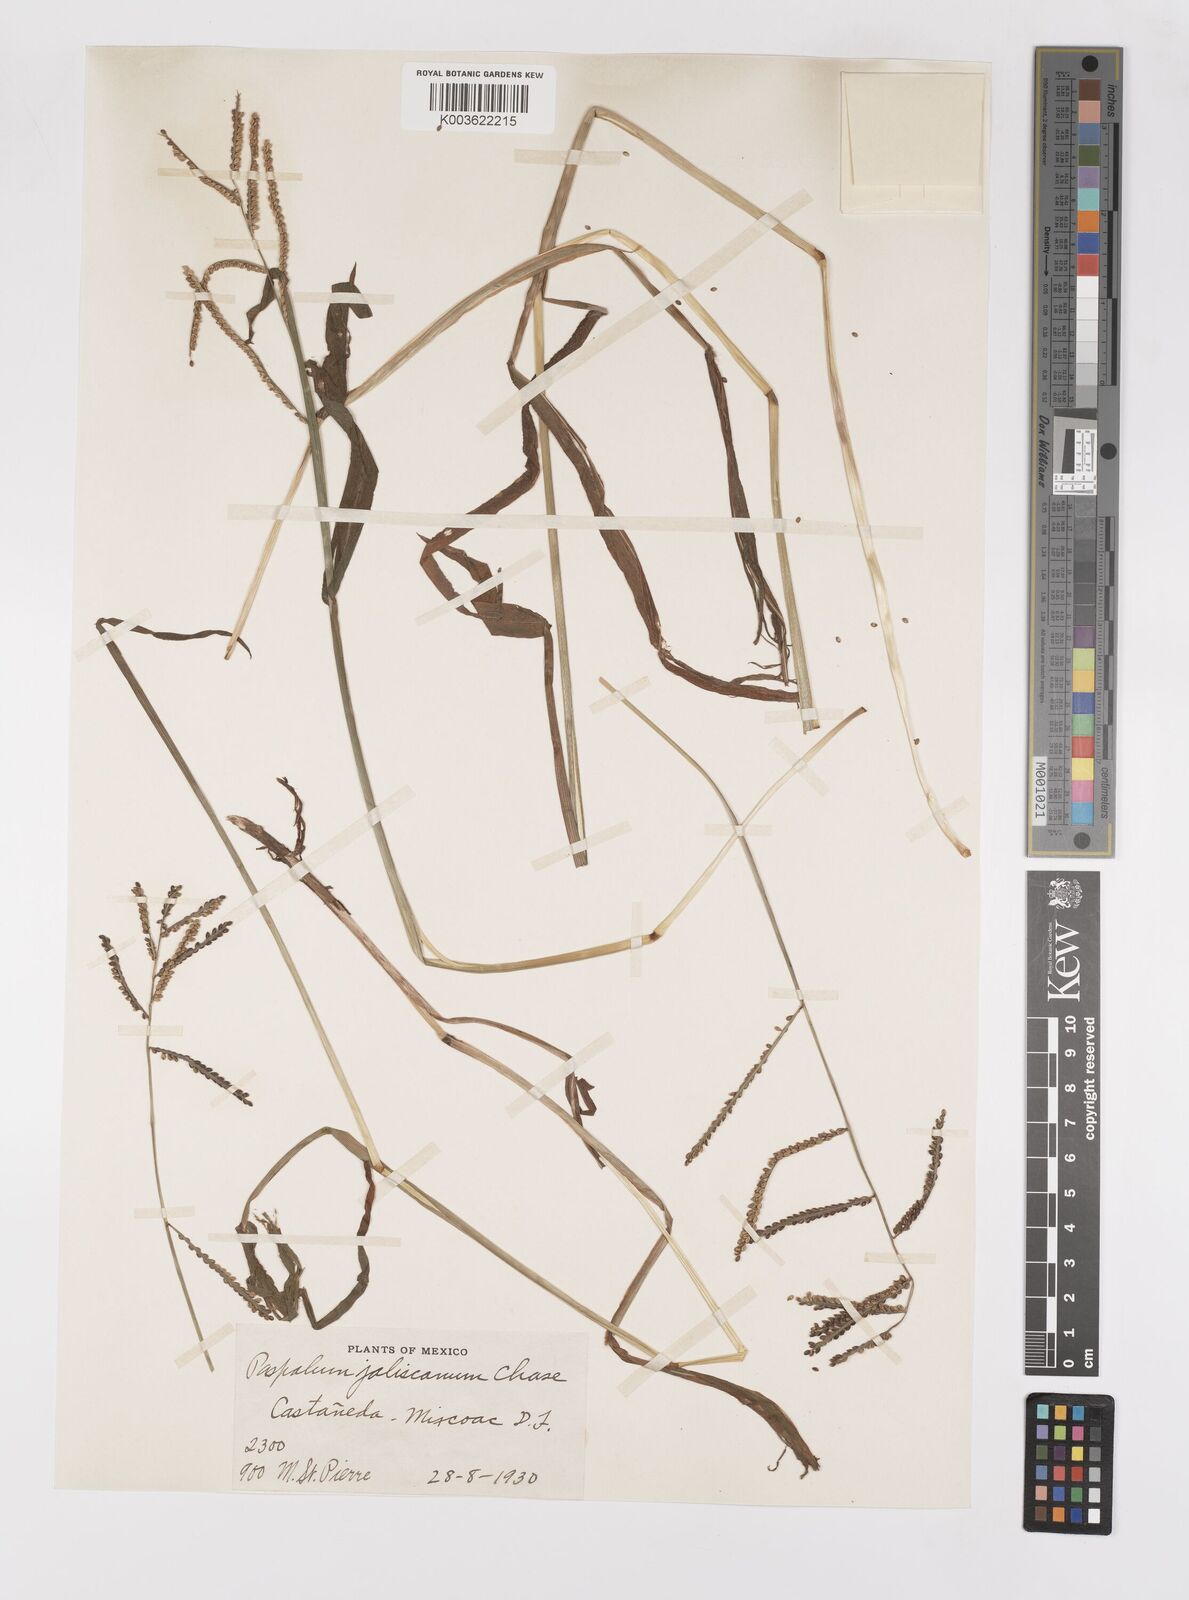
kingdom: Plantae
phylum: Tracheophyta
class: Liliopsida
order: Poales
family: Poaceae
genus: Paspalum
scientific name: Paspalum jaliscanum
